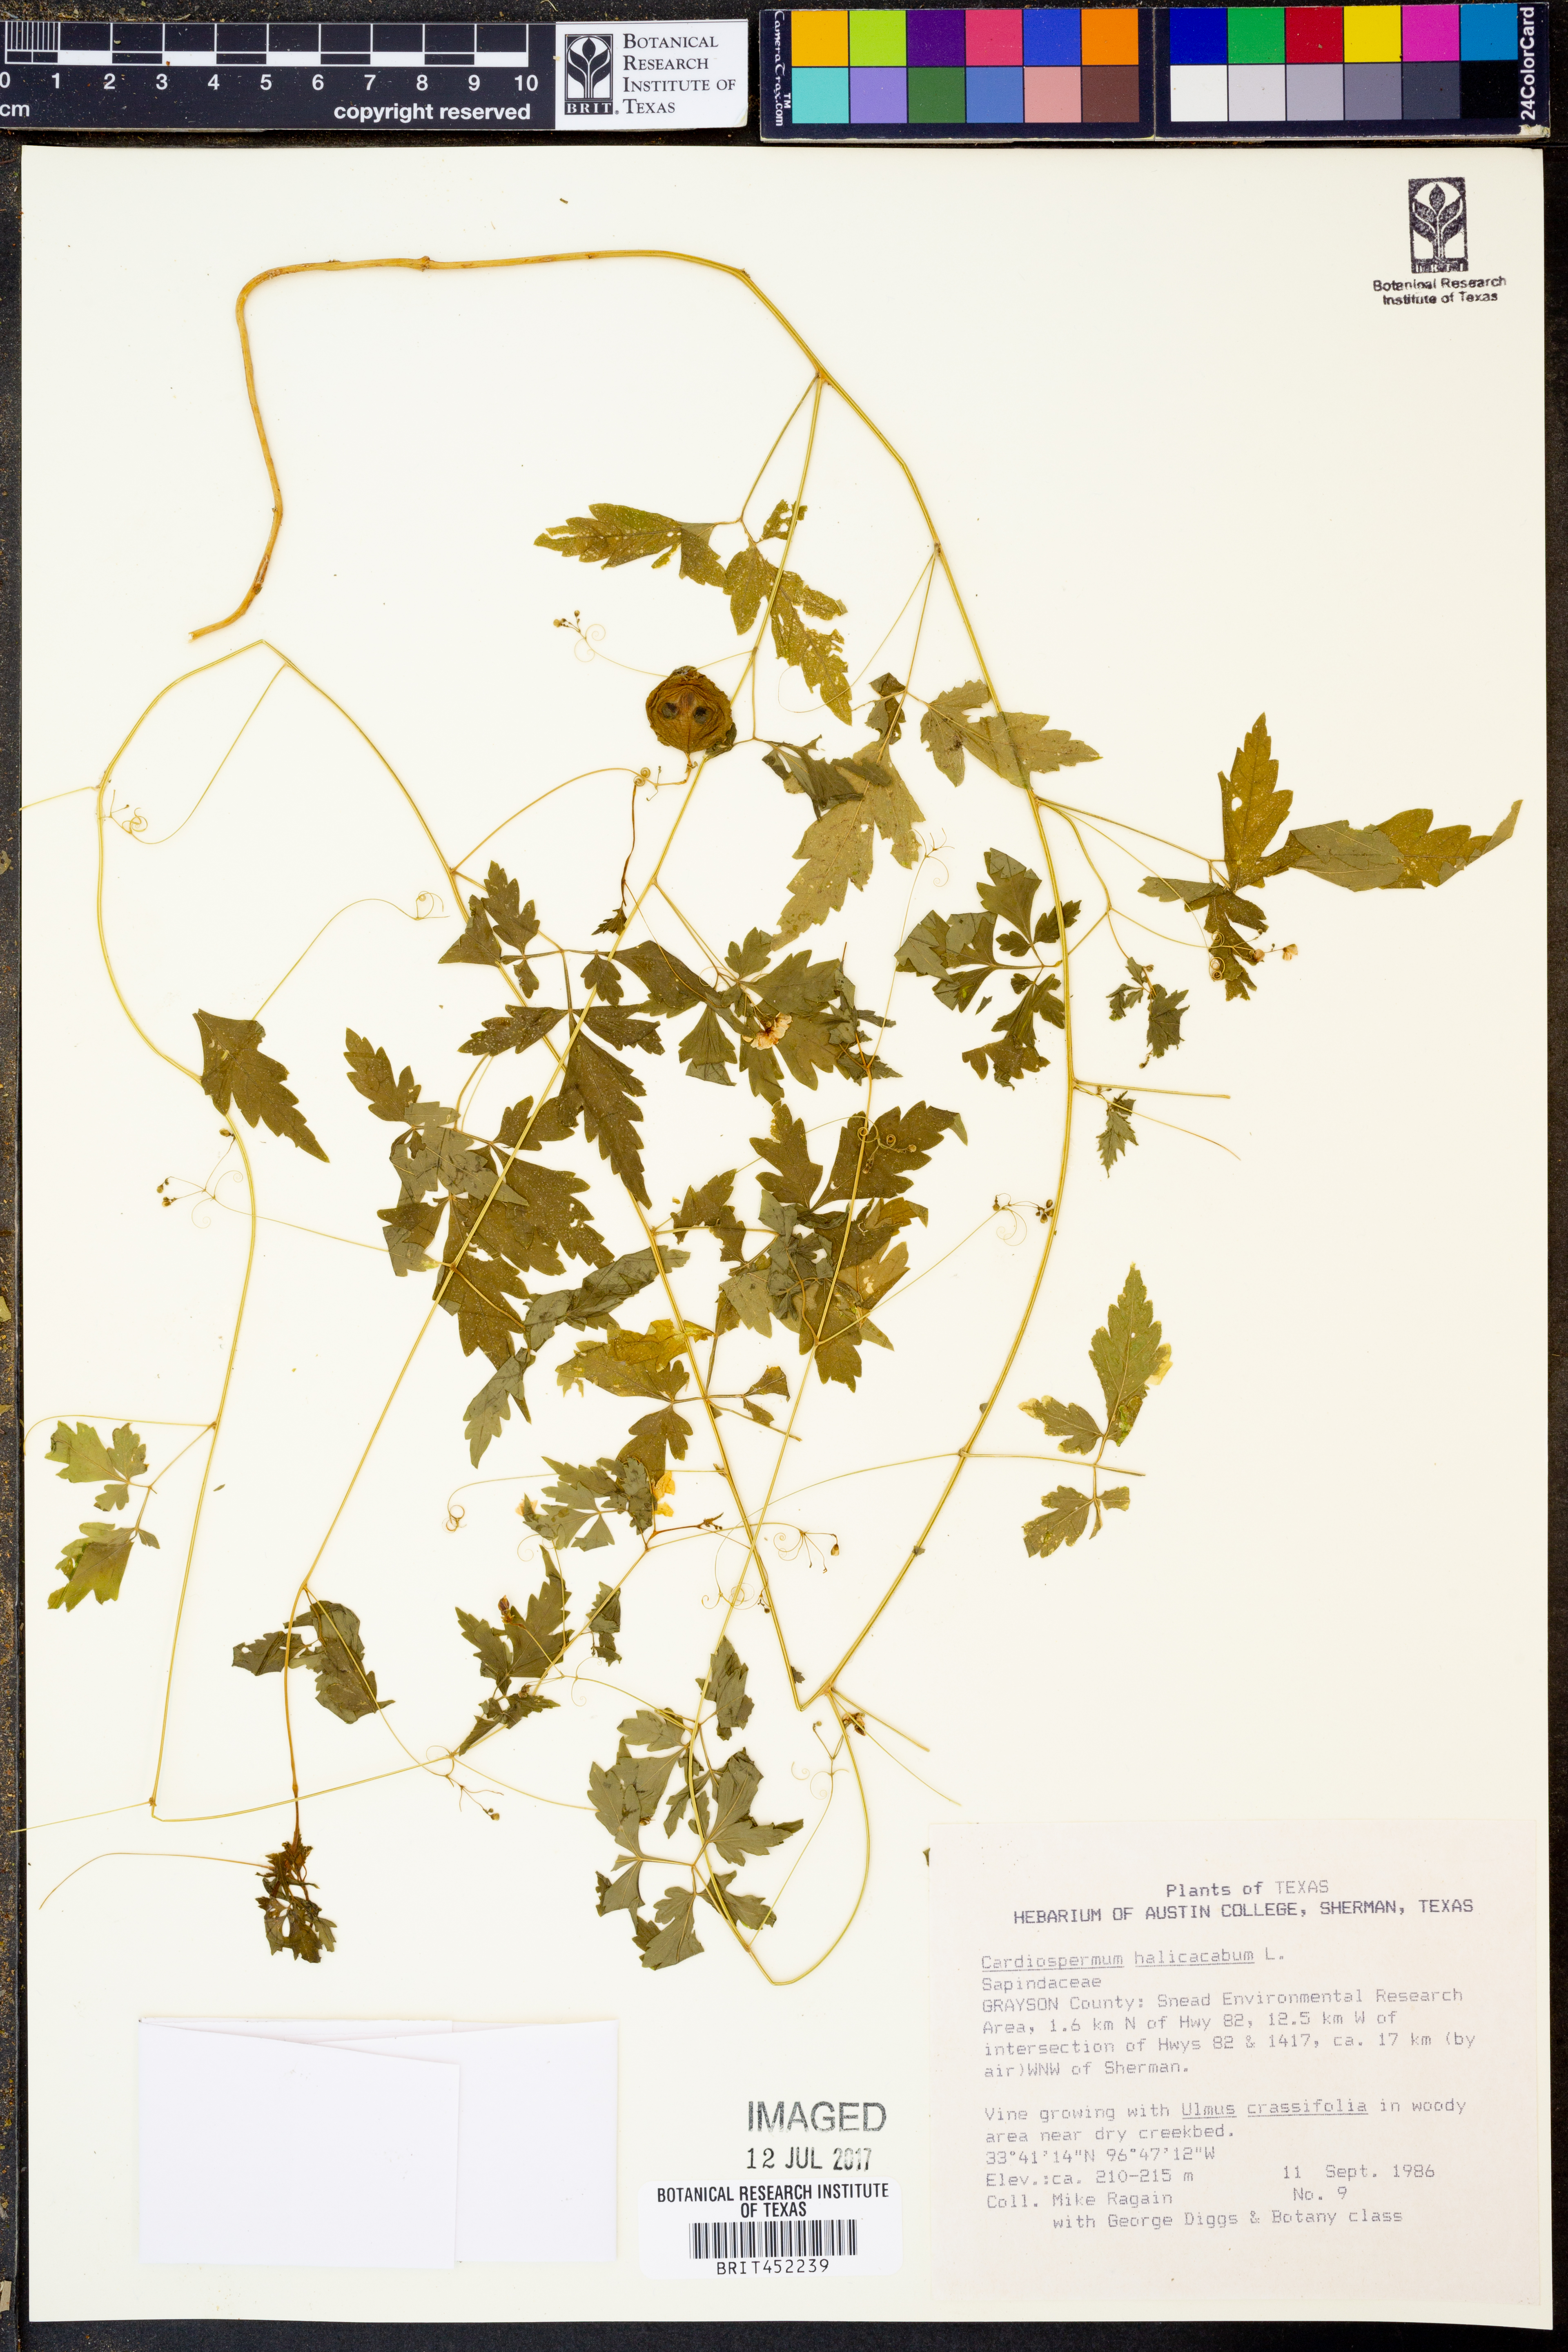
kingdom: Plantae
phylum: Tracheophyta
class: Magnoliopsida
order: Sapindales
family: Sapindaceae
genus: Cardiospermum
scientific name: Cardiospermum halicacabum
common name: Balloon vine
